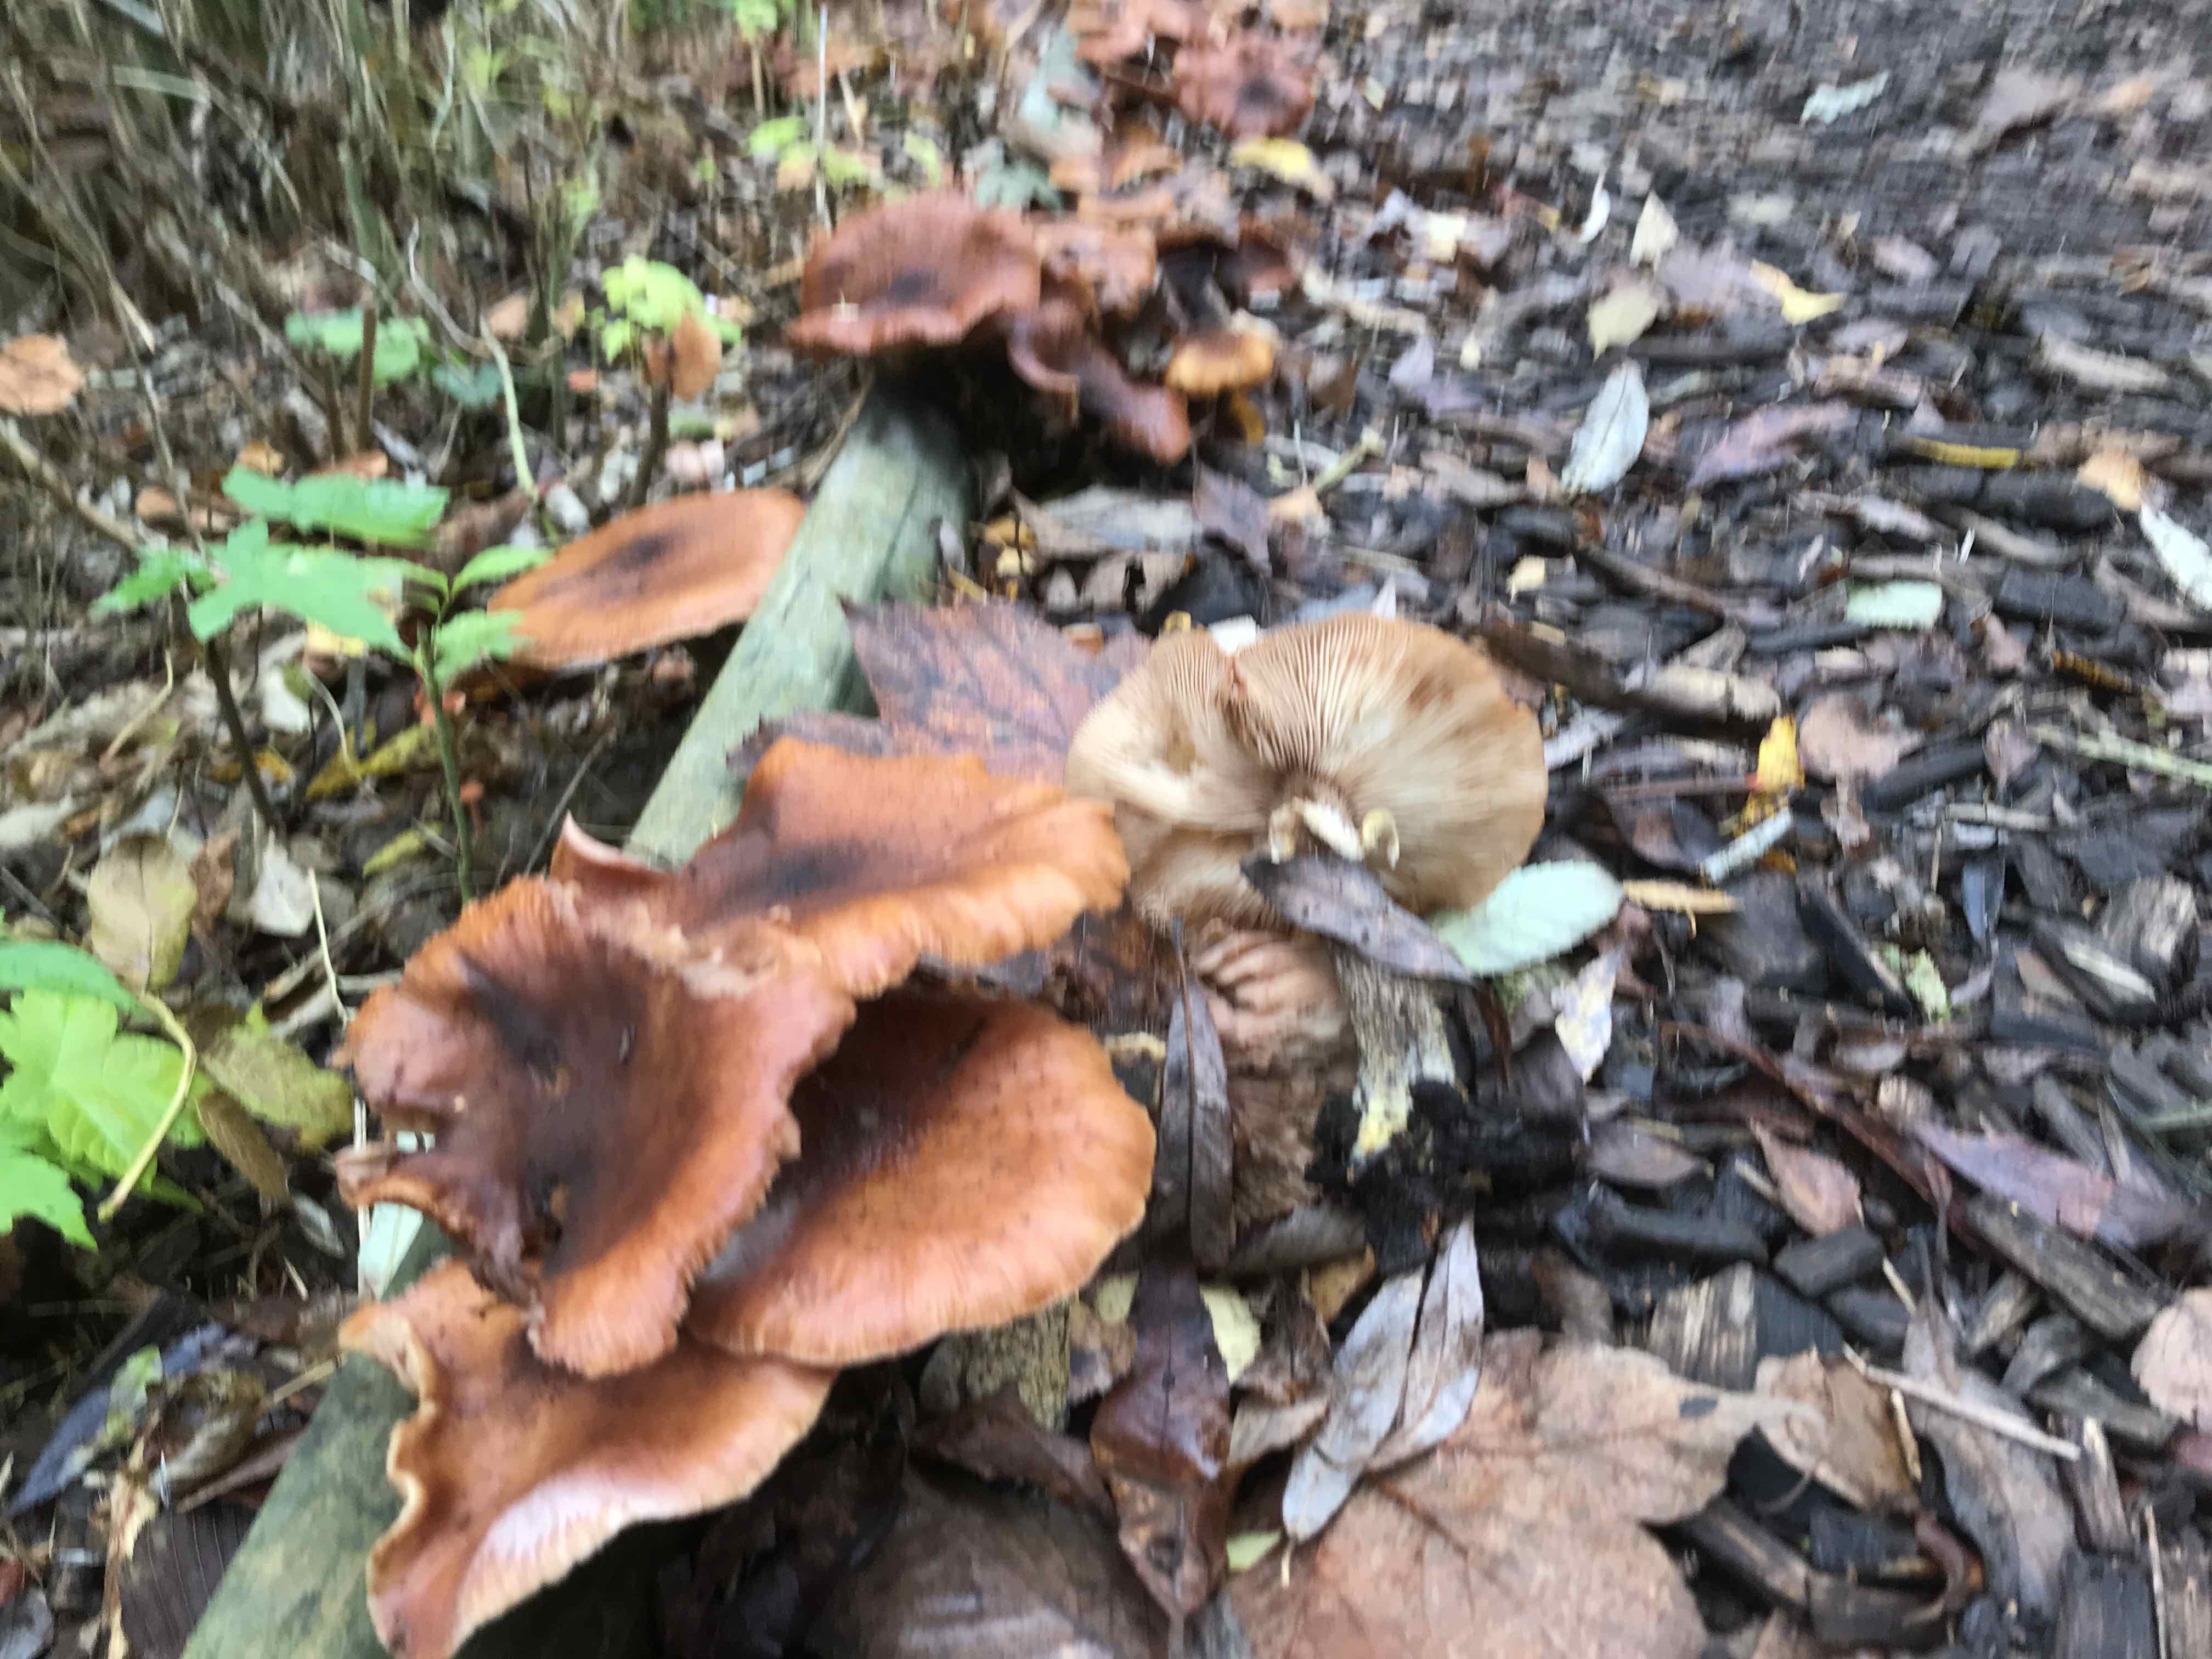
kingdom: Fungi
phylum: Basidiomycota
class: Agaricomycetes
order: Agaricales
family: Physalacriaceae
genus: Armillaria
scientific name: Armillaria lutea
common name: køllestokket honningsvamp
